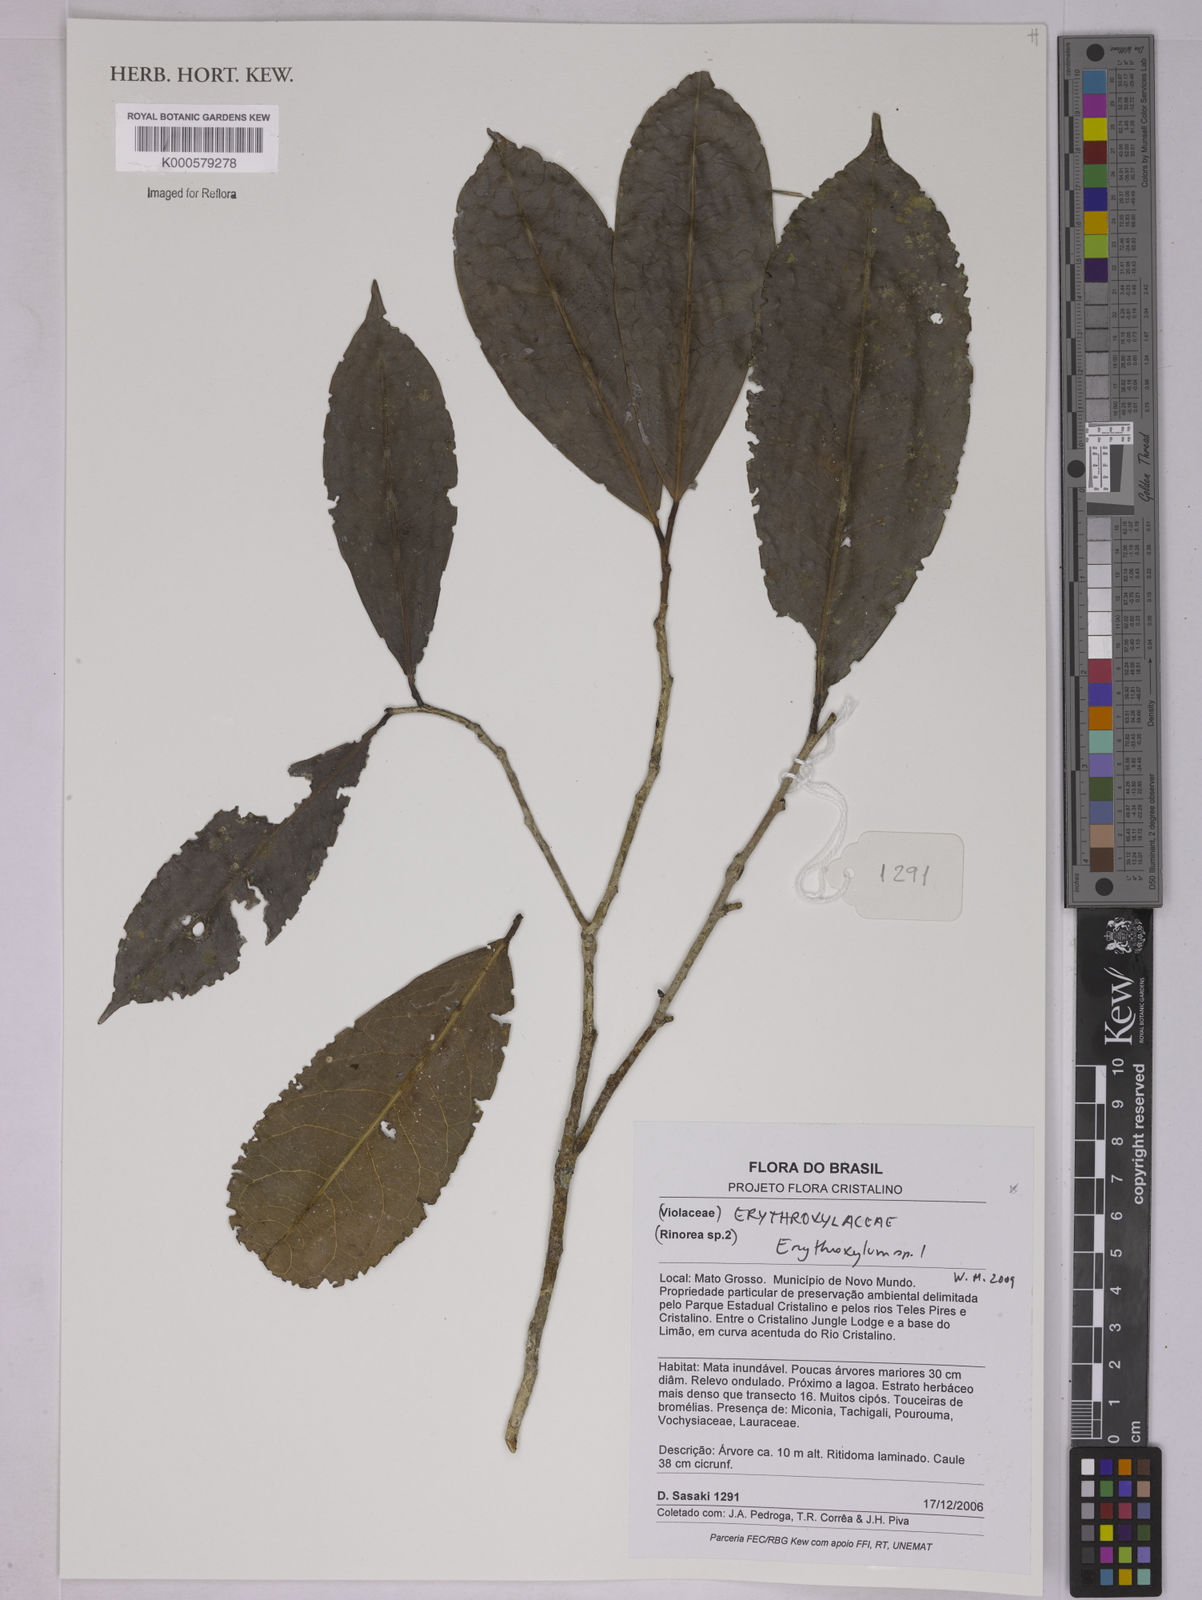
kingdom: Plantae
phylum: Tracheophyta
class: Magnoliopsida
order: Malpighiales
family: Erythroxylaceae
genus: Erythroxylum
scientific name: Erythroxylum
